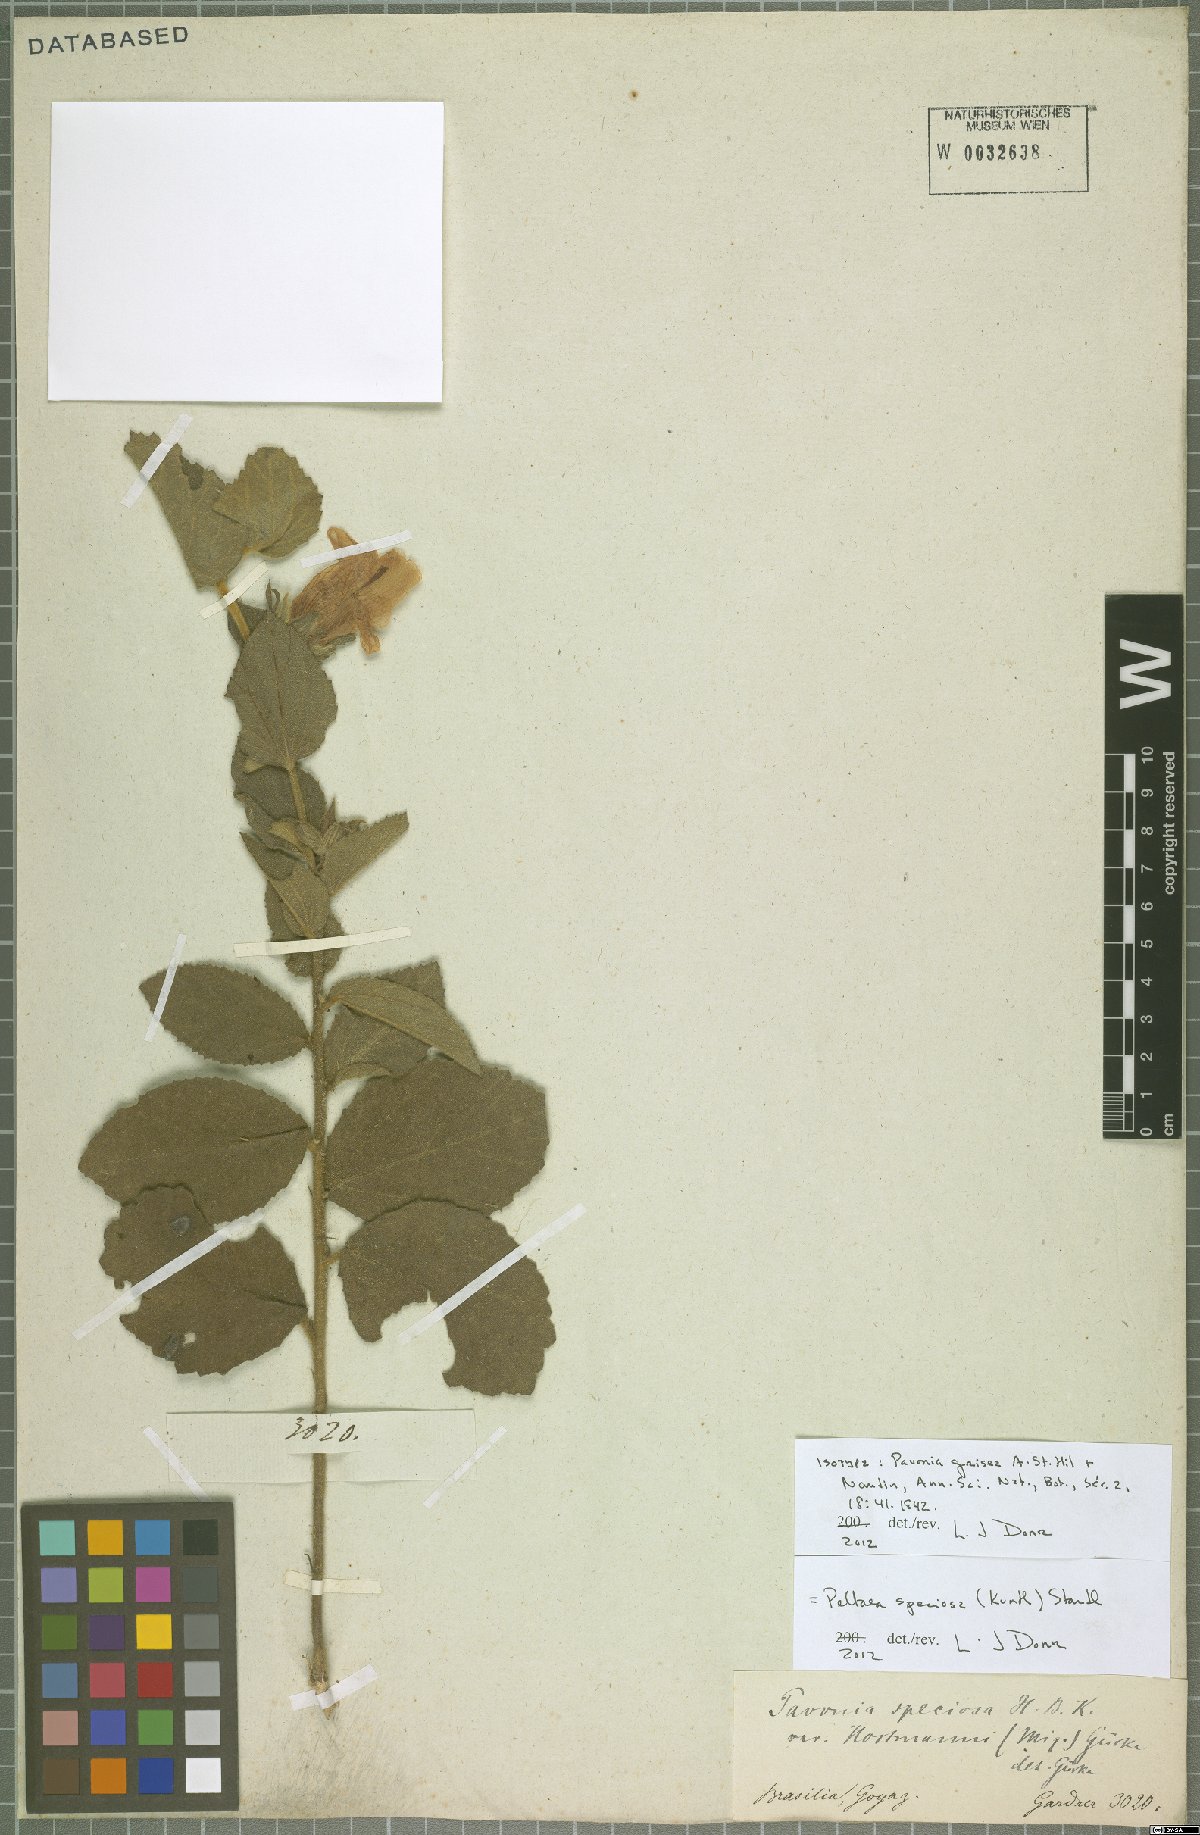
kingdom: Plantae
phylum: Tracheophyta
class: Magnoliopsida
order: Malvales
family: Malvaceae
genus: Peltaea
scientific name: Peltaea speciosa
